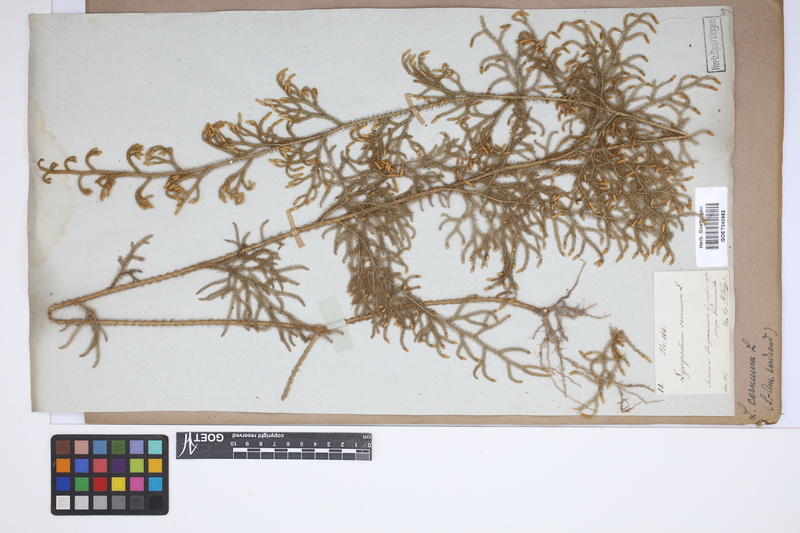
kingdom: Plantae
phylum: Tracheophyta
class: Lycopodiopsida
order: Lycopodiales
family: Lycopodiaceae
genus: Palhinhaea
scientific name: Palhinhaea cernua
